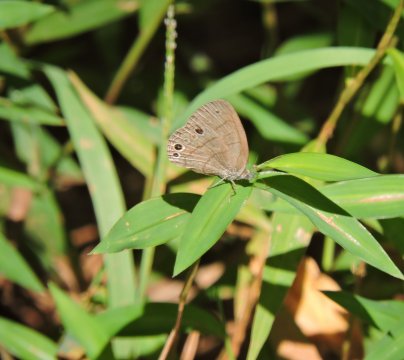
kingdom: Animalia
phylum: Arthropoda
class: Insecta
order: Lepidoptera
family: Nymphalidae
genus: Hermeuptychia
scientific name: Hermeuptychia intricata
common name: Intricate Satyr
